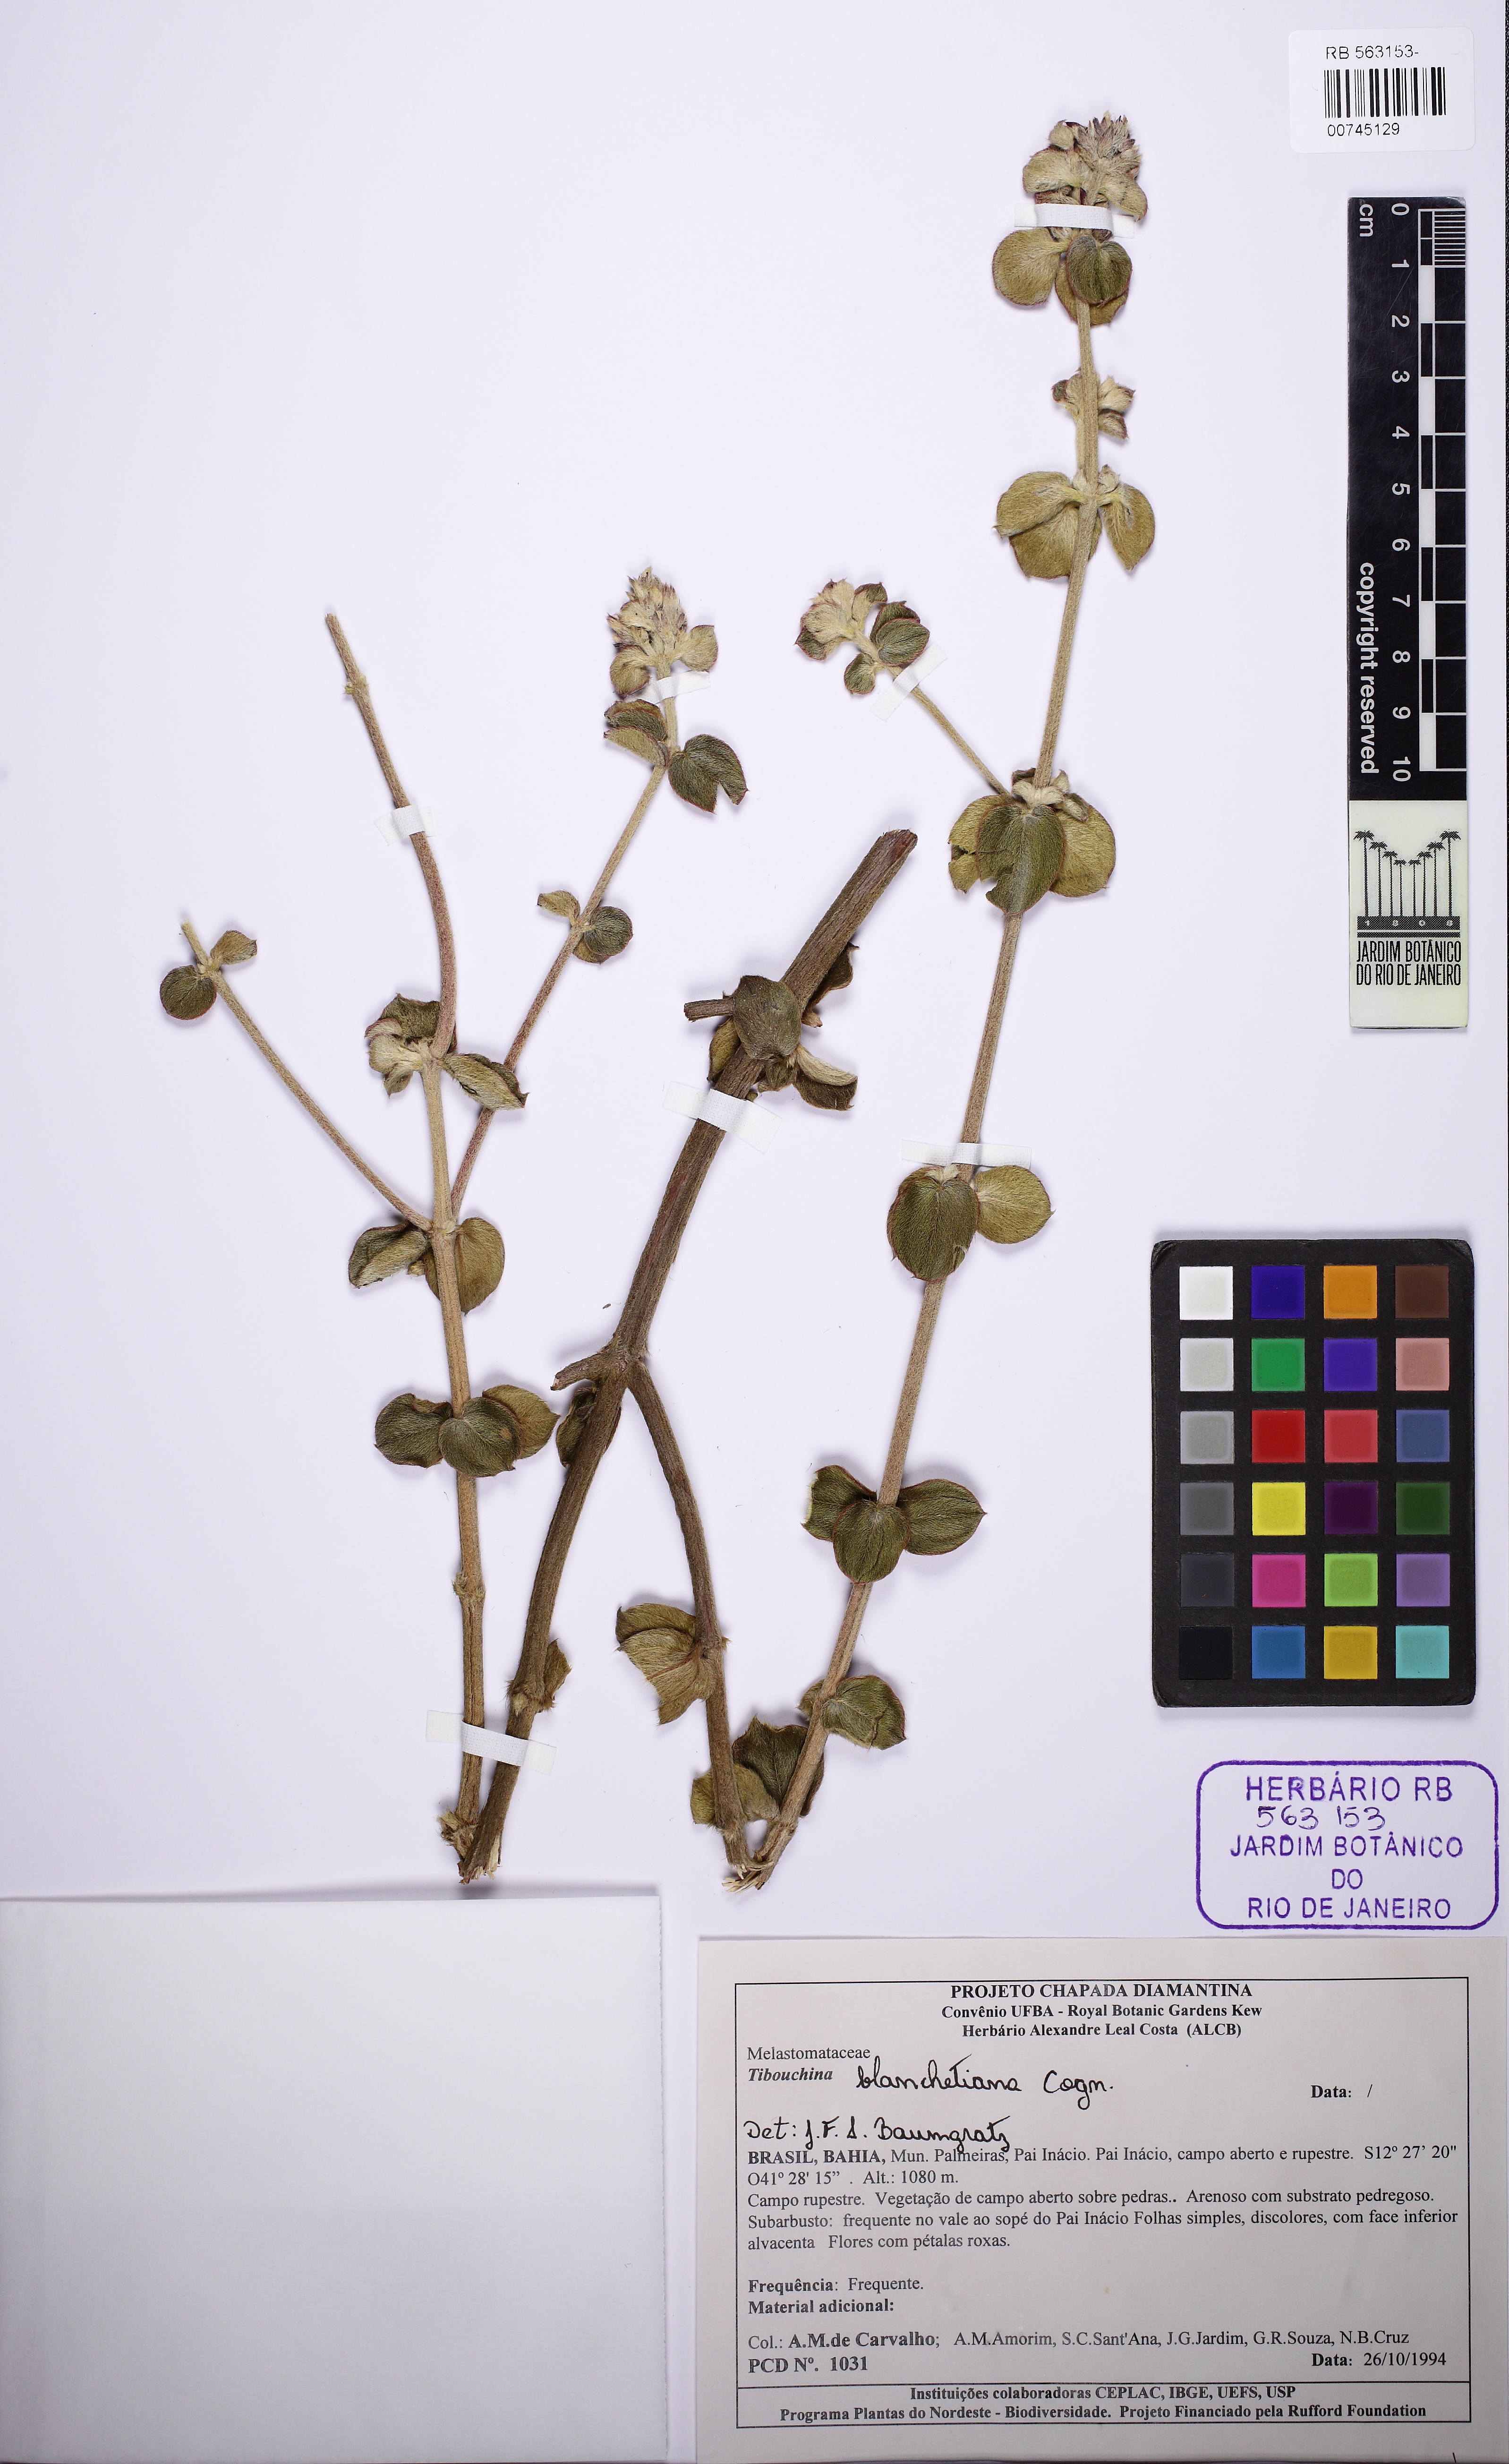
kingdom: Plantae
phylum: Tracheophyta
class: Magnoliopsida
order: Myrtales
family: Melastomataceae
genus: Pleroma
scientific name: Pleroma blanchetianum
